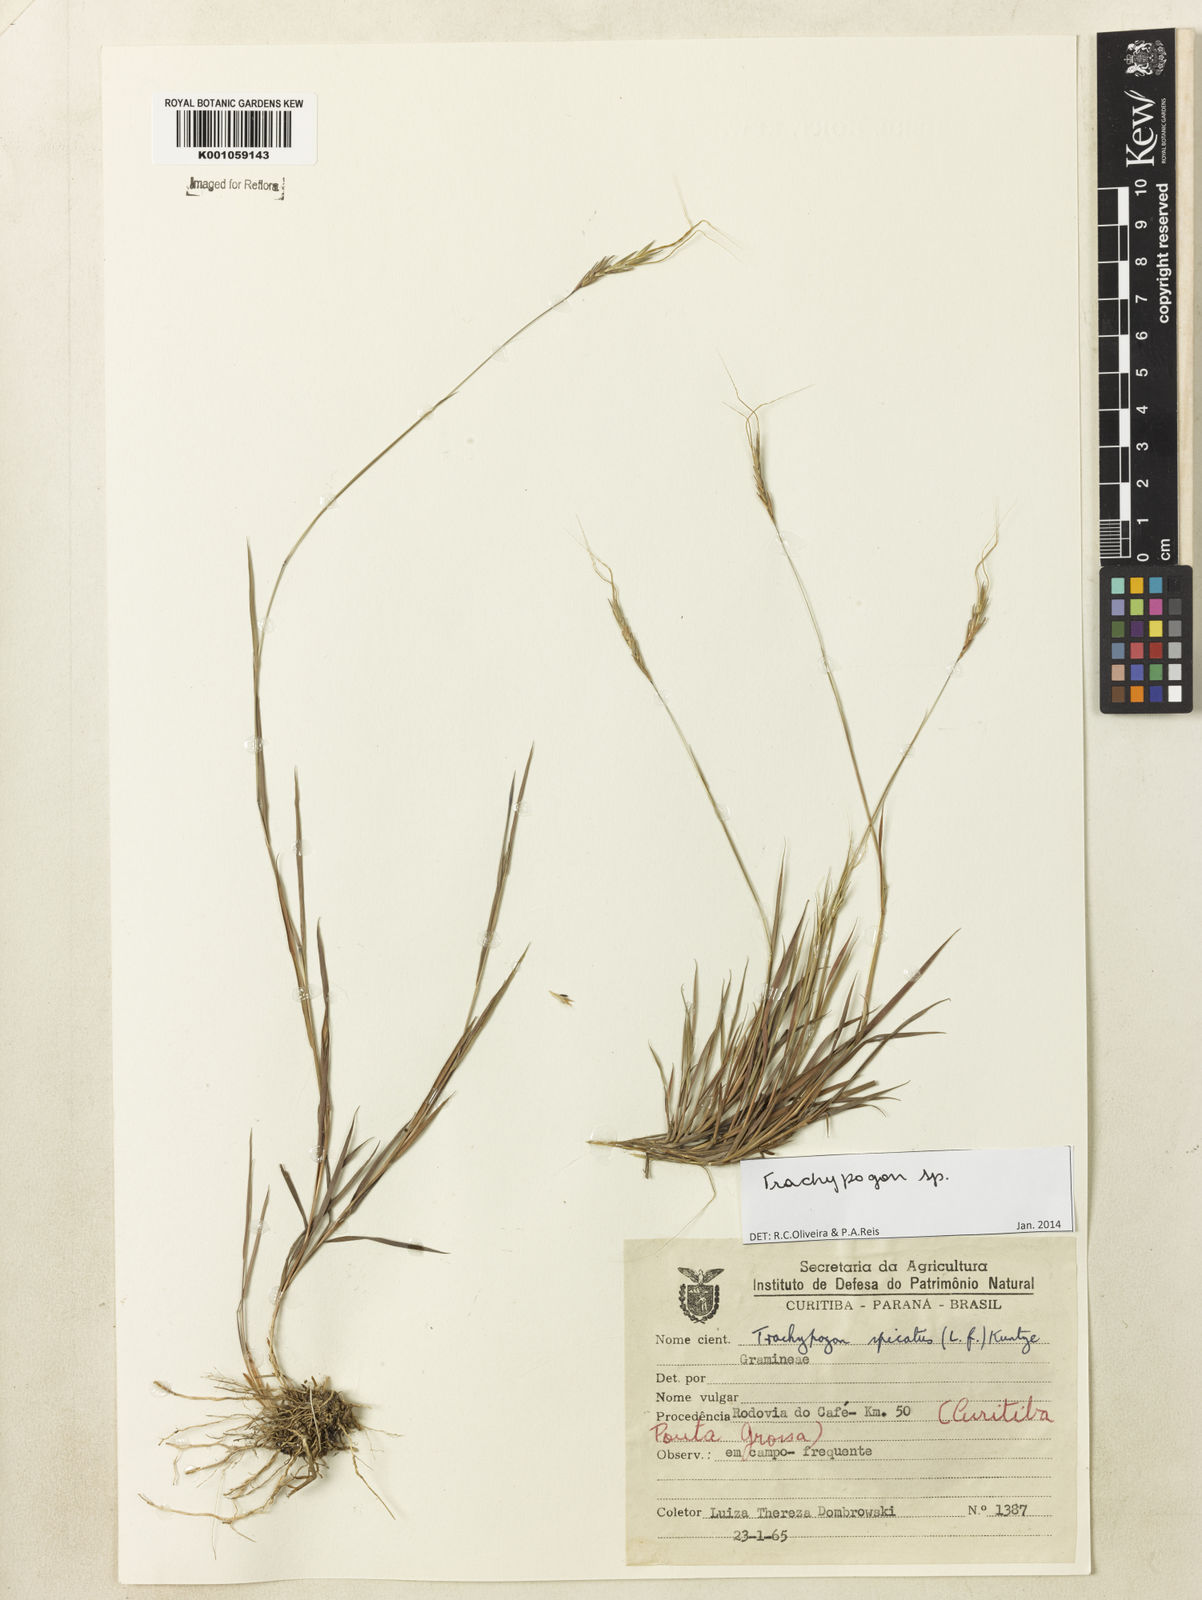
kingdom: Plantae
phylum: Tracheophyta
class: Liliopsida
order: Poales
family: Poaceae
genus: Trachypogon
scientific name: Trachypogon
